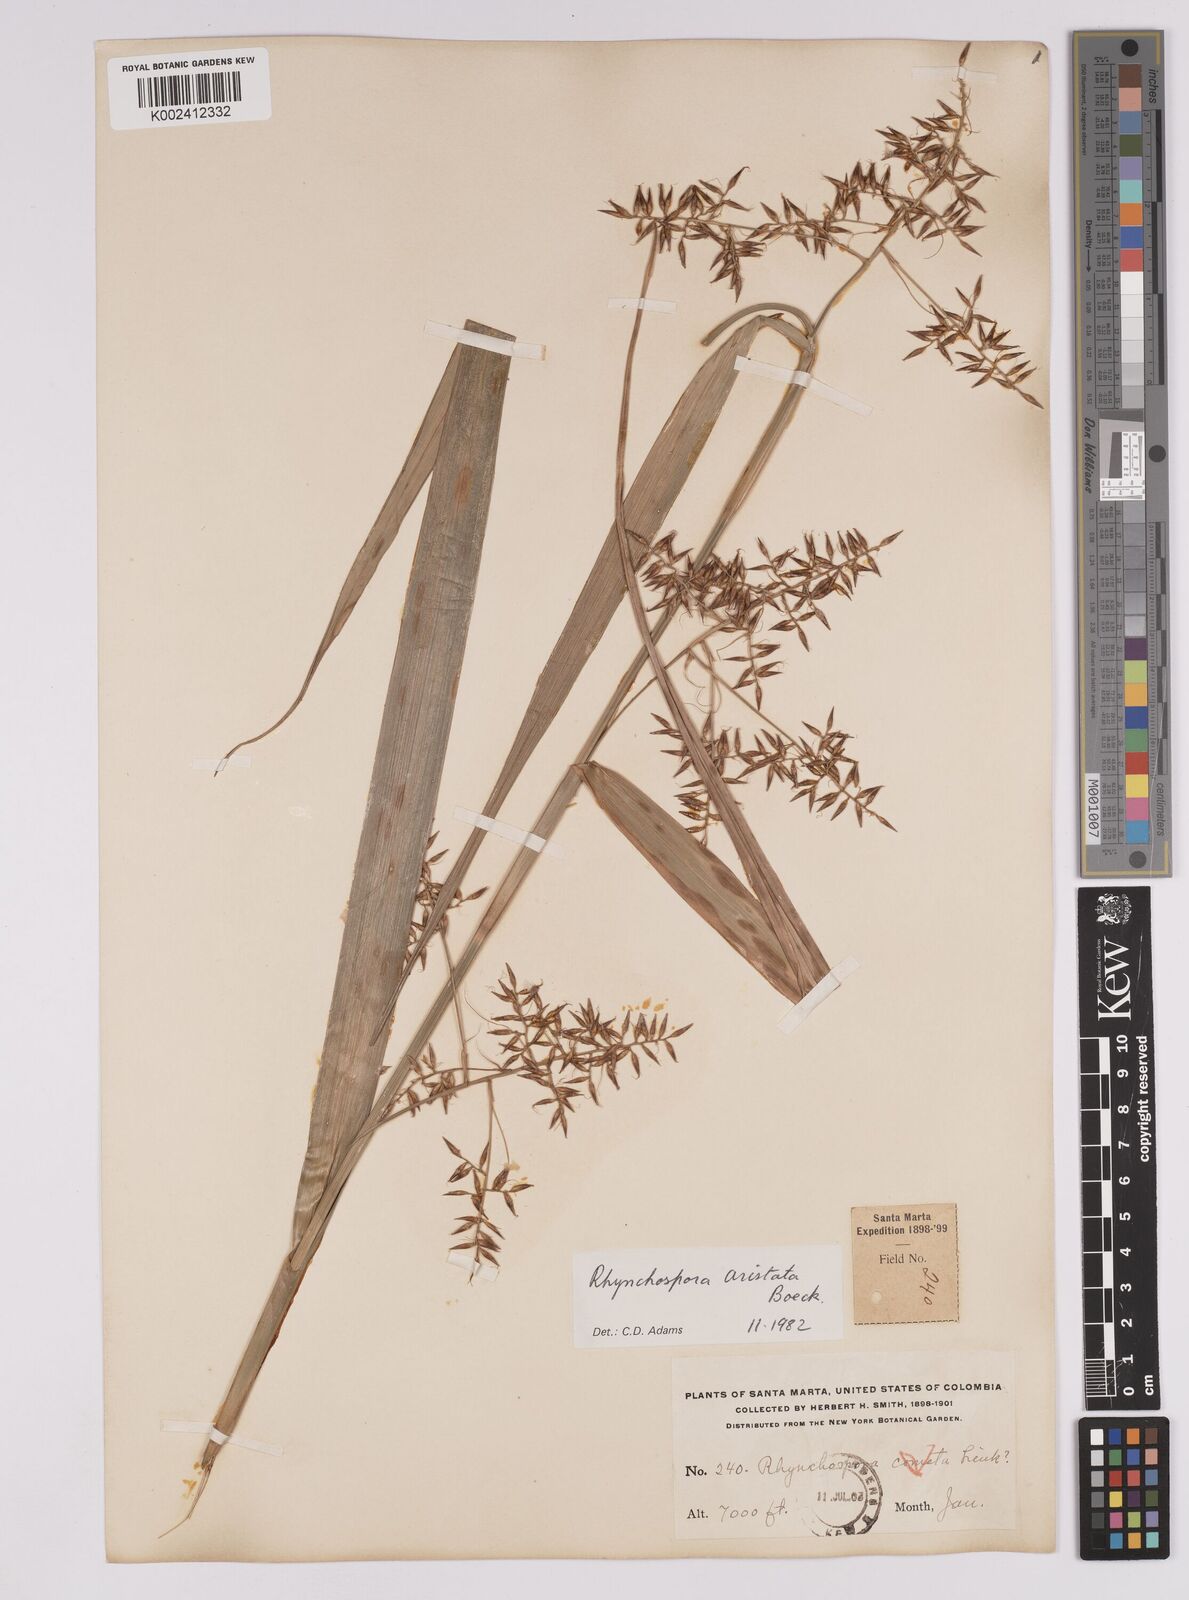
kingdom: Plantae
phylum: Tracheophyta
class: Liliopsida
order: Poales
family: Cyperaceae
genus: Rhynchospora
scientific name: Rhynchospora aristata
